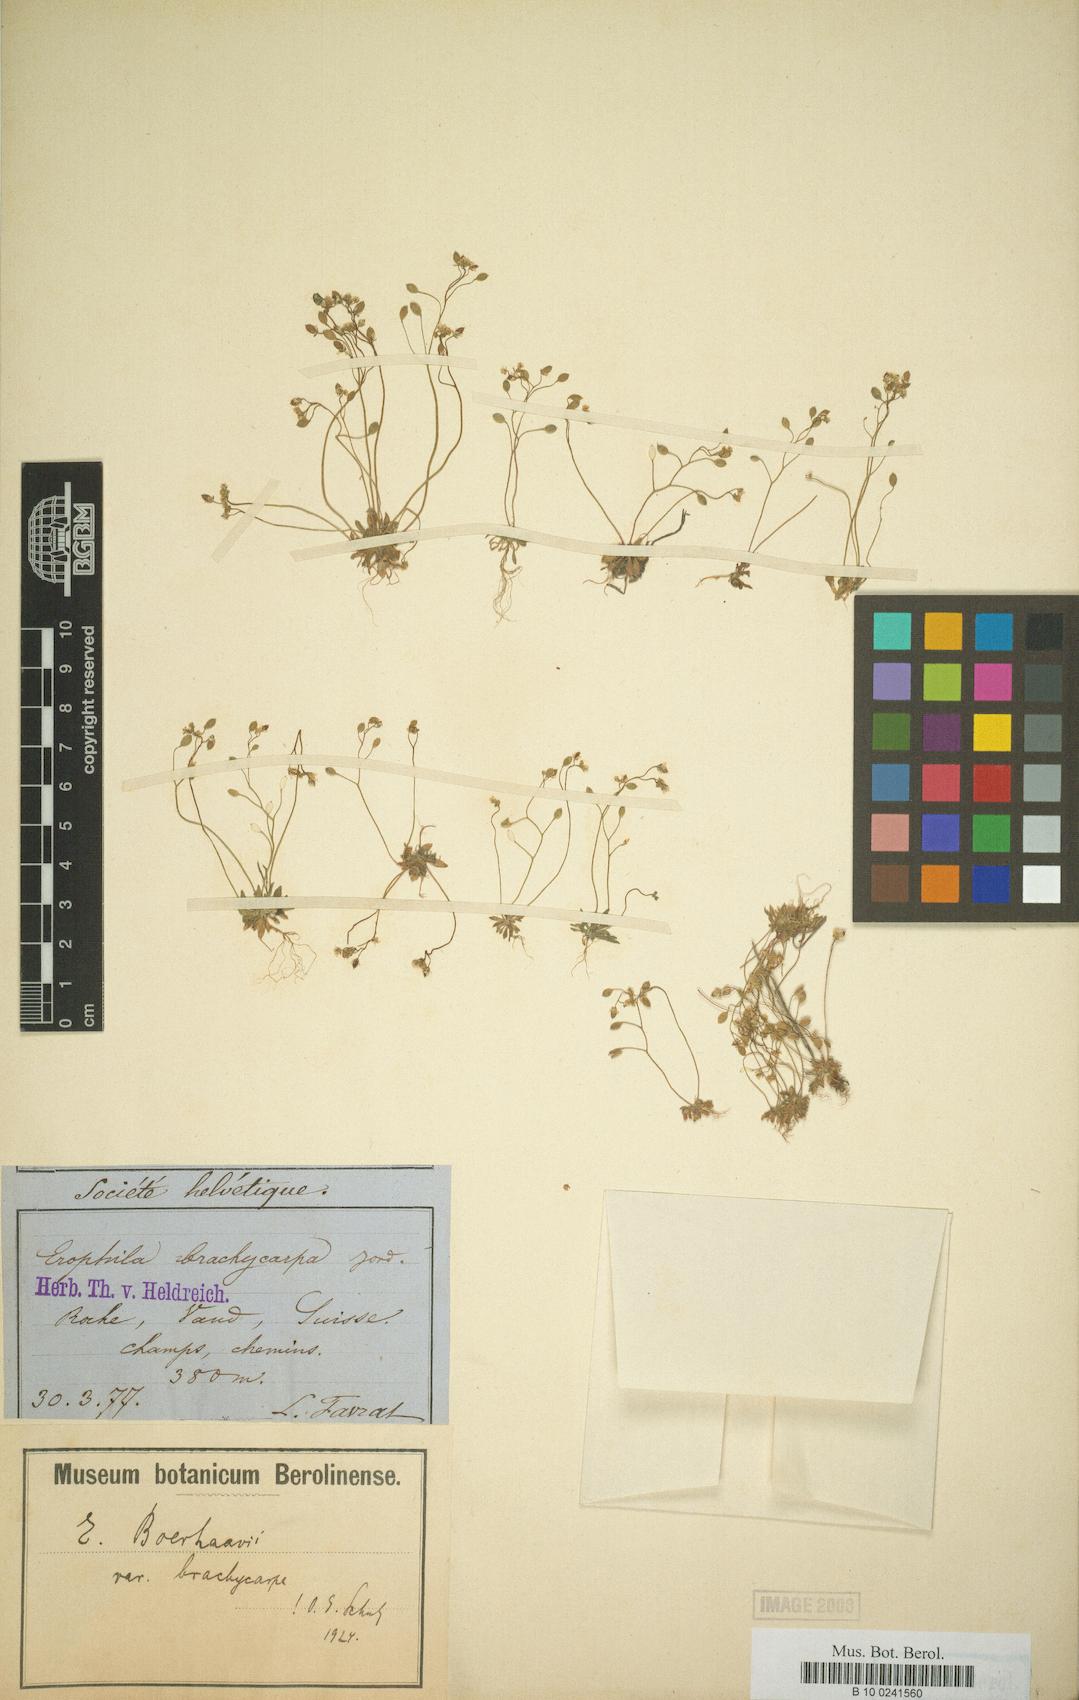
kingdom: Plantae
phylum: Tracheophyta
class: Magnoliopsida
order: Brassicales
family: Brassicaceae
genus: Draba
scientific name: Draba verna
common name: Spring draba
